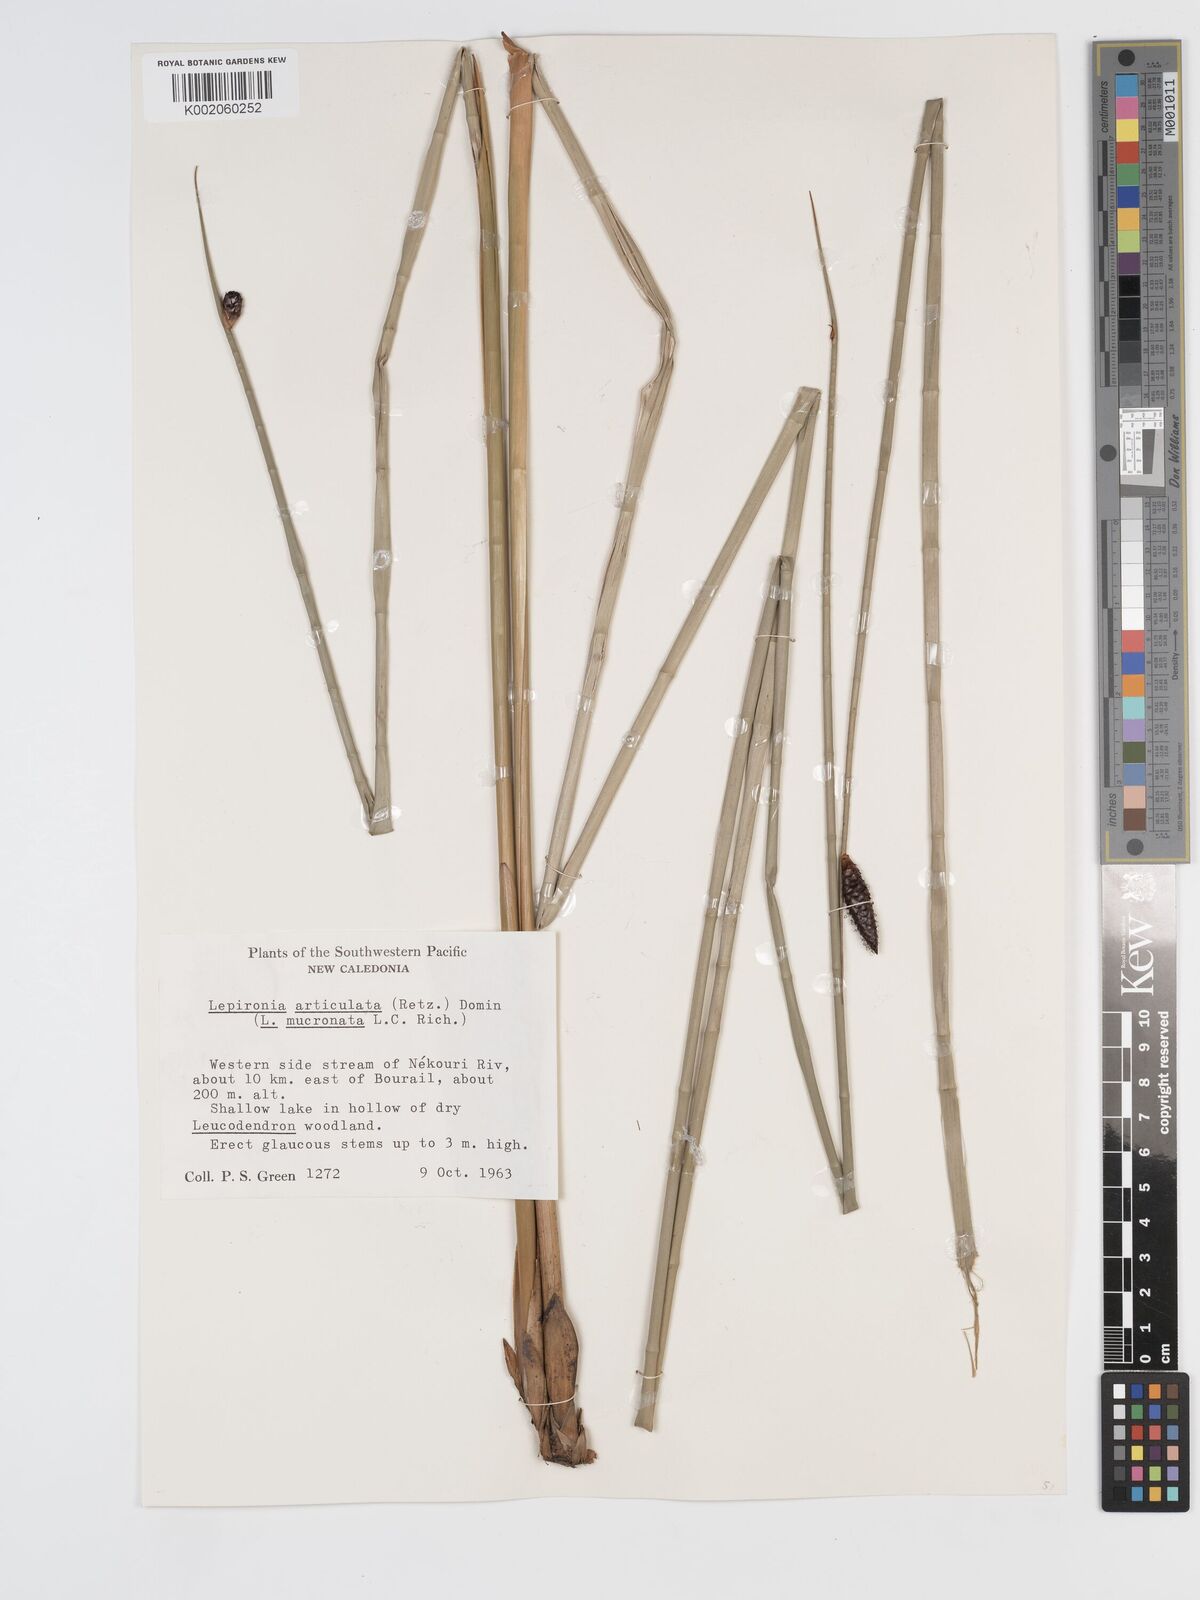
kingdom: Plantae
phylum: Tracheophyta
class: Liliopsida
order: Poales
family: Cyperaceae
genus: Lepironia
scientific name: Lepironia articulata
